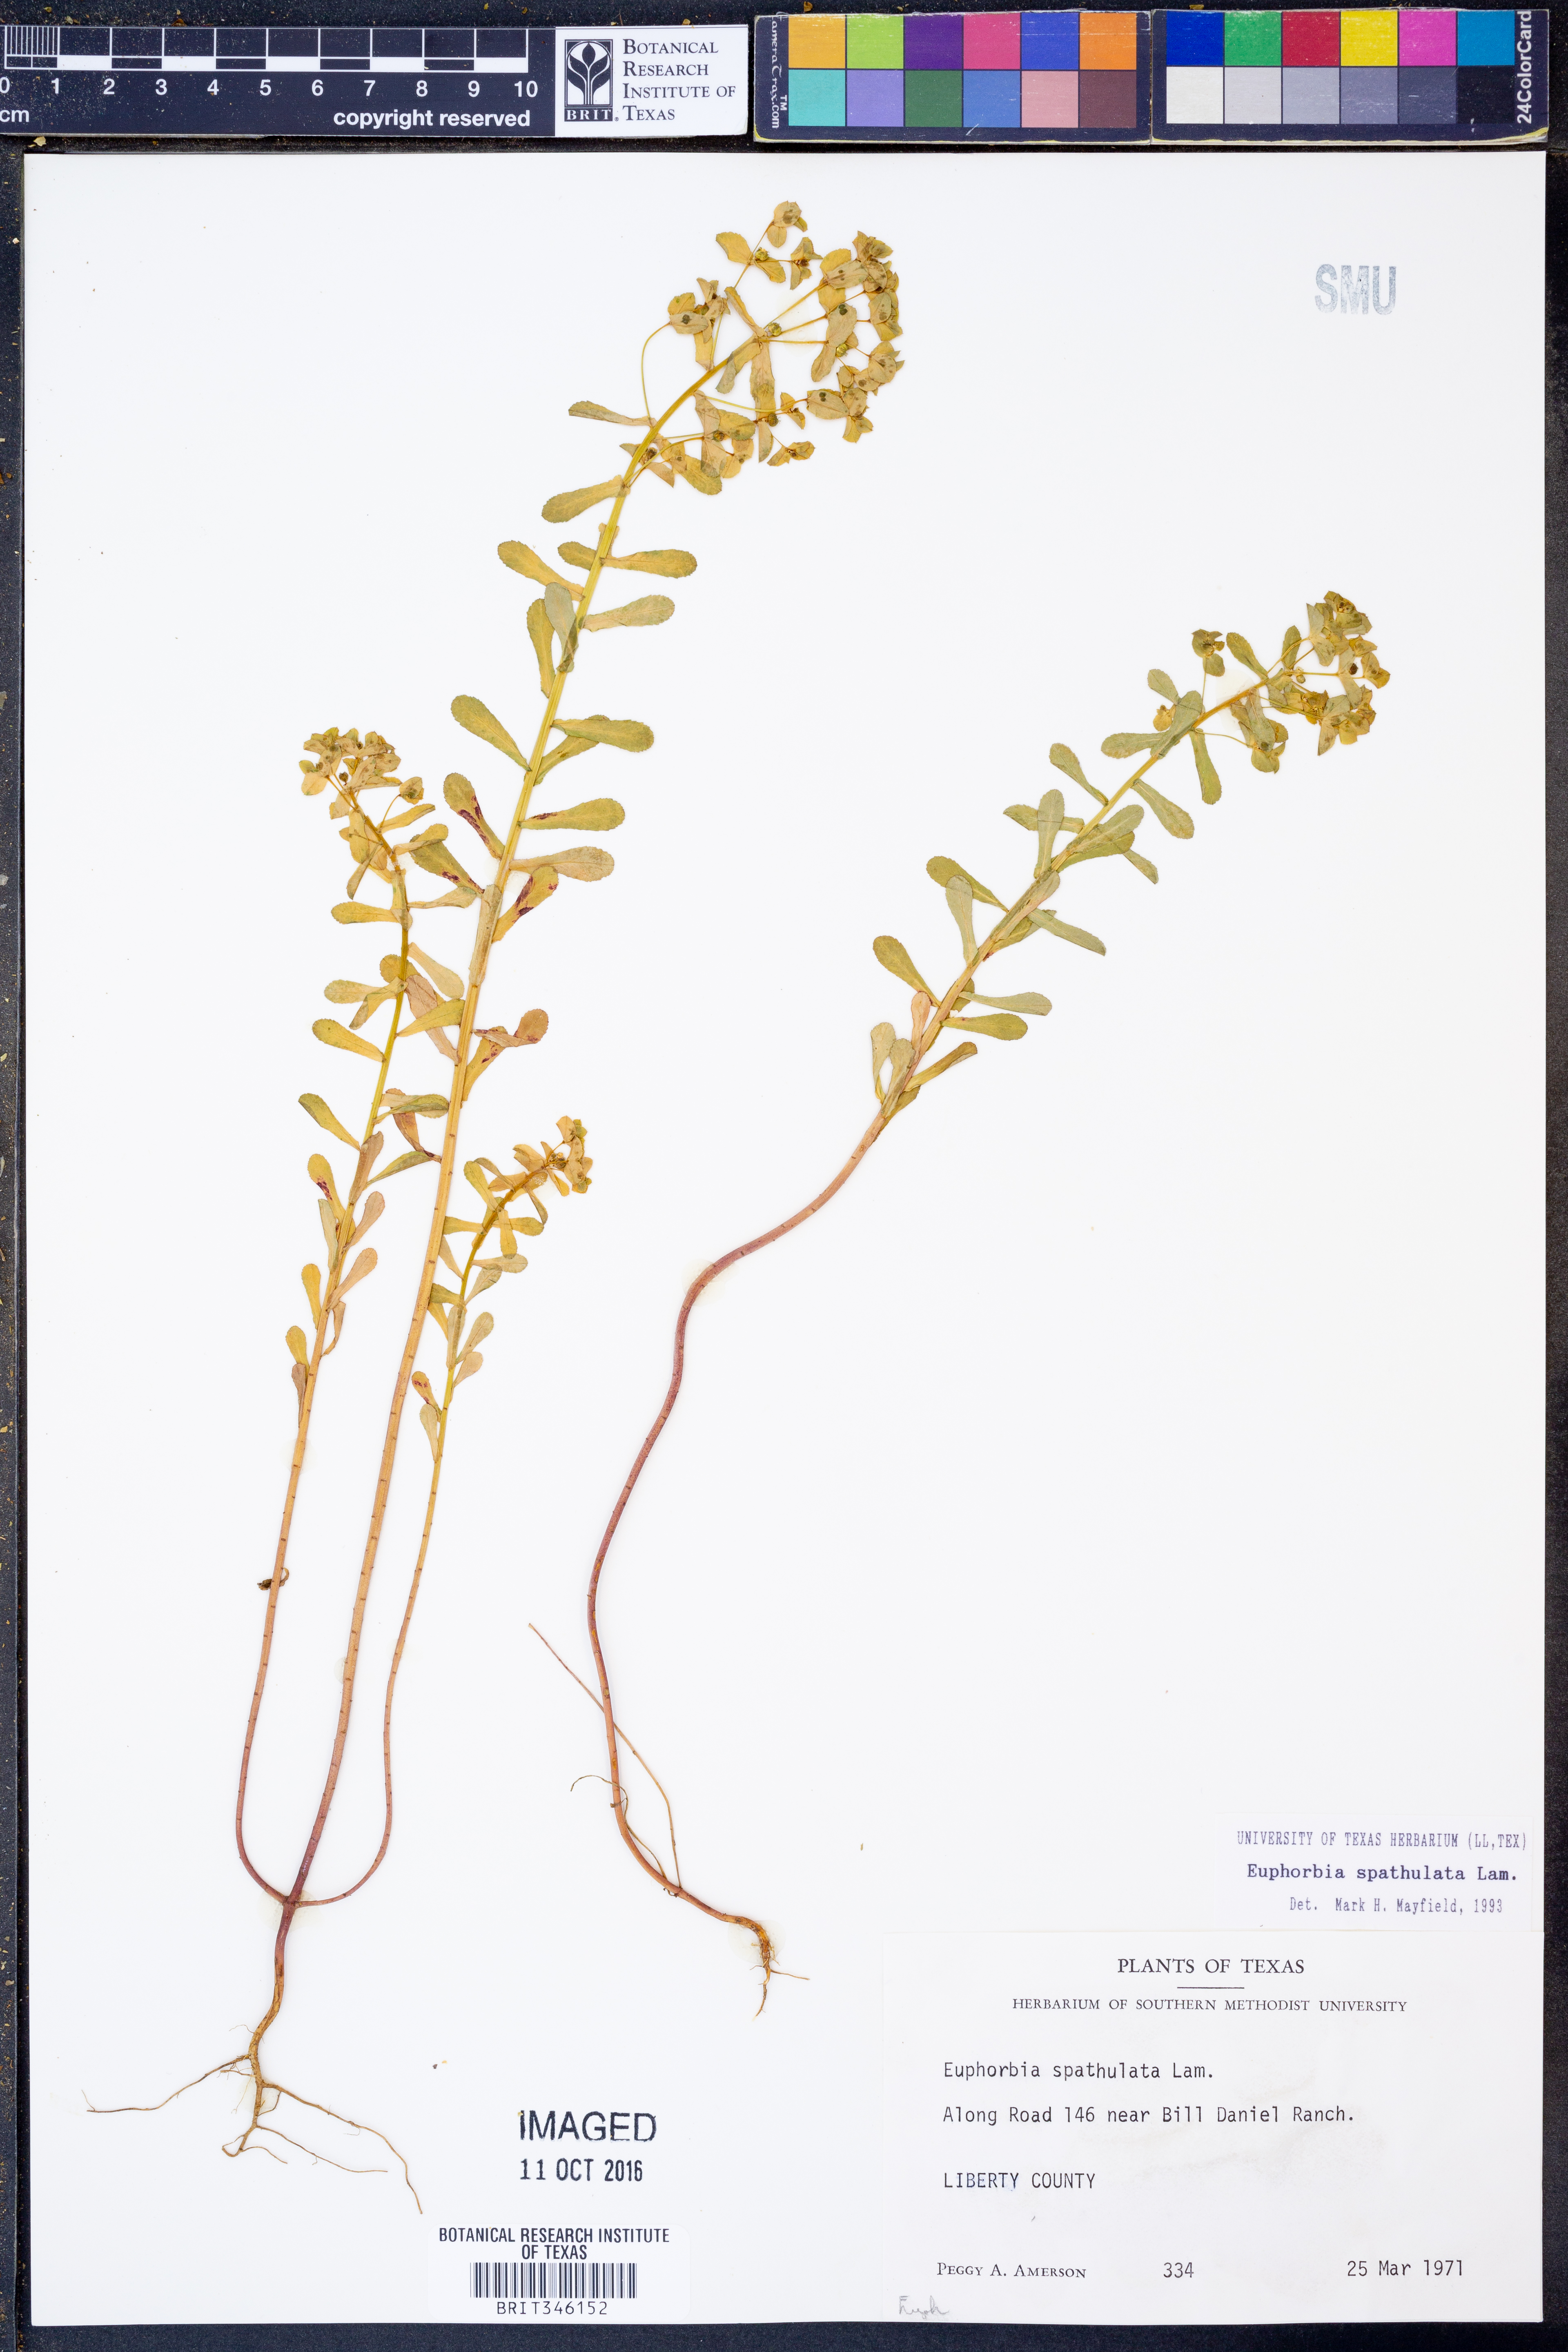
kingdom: Plantae
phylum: Tracheophyta
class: Magnoliopsida
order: Malpighiales
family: Euphorbiaceae
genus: Euphorbia
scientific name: Euphorbia spathulata
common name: Blunt spurge
